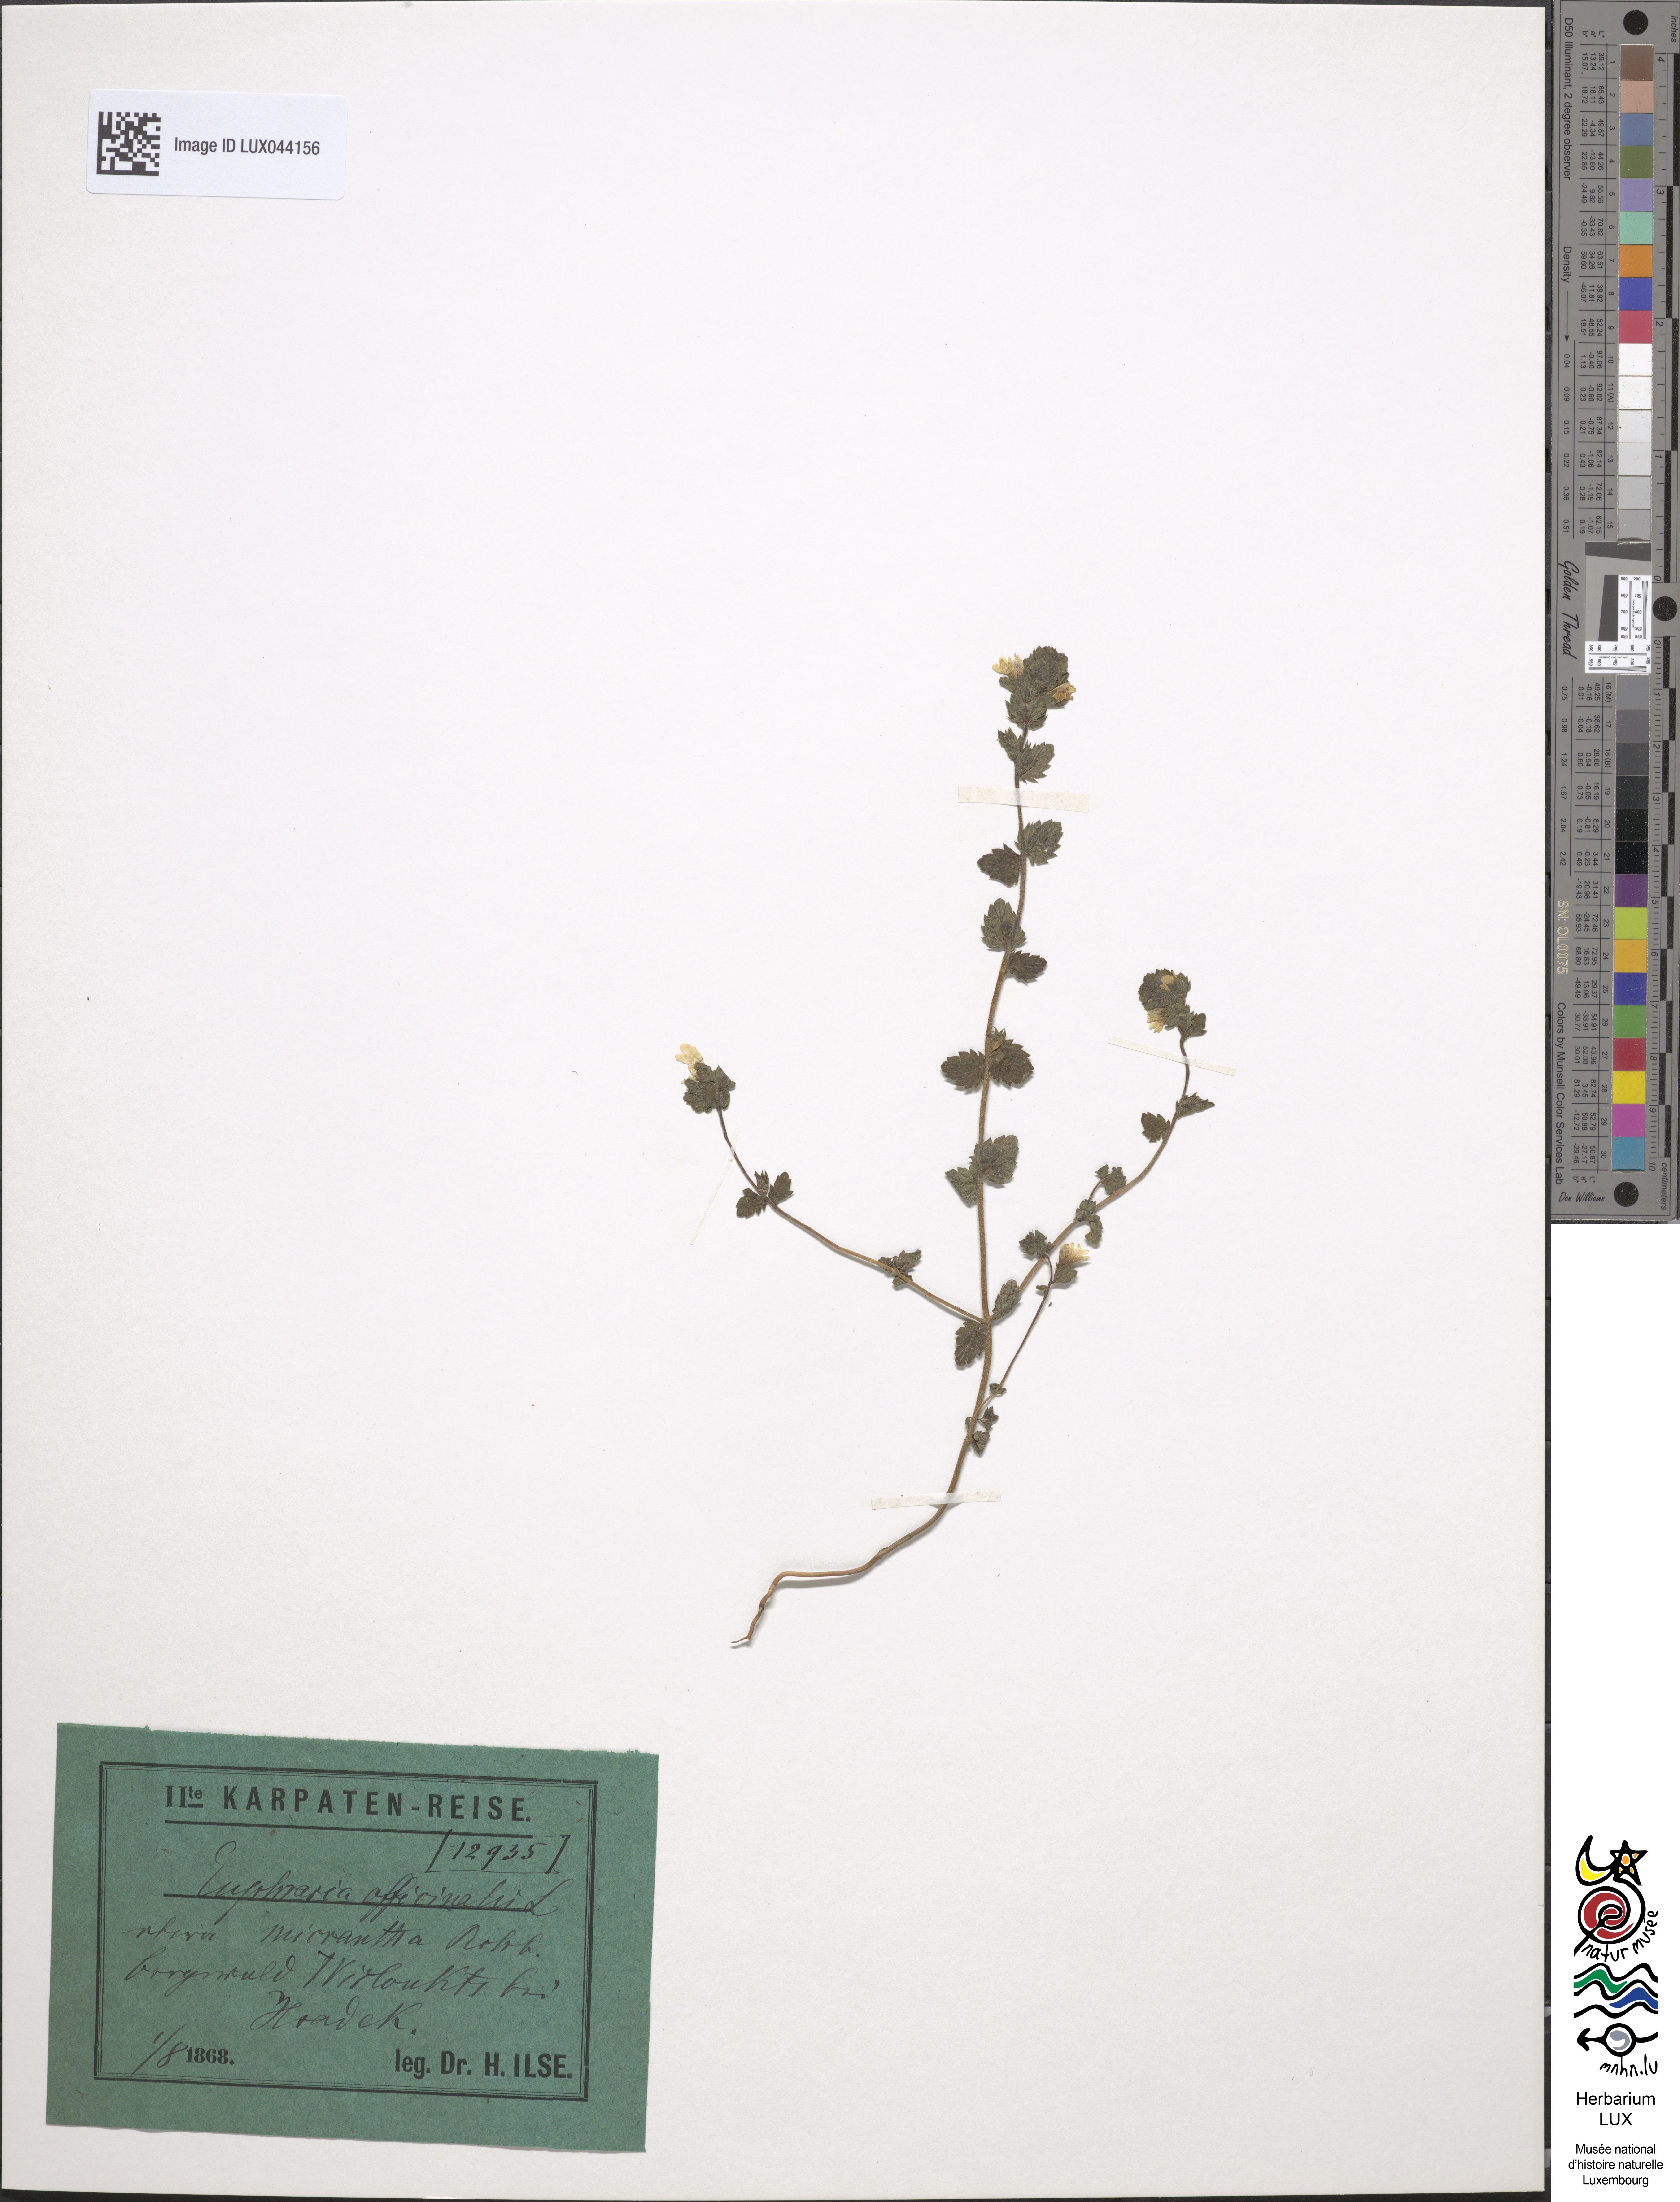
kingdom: Plantae
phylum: Tracheophyta
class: Magnoliopsida
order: Lamiales
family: Orobanchaceae
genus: Euphrasia
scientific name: Euphrasia officinalis
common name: Eyebright
